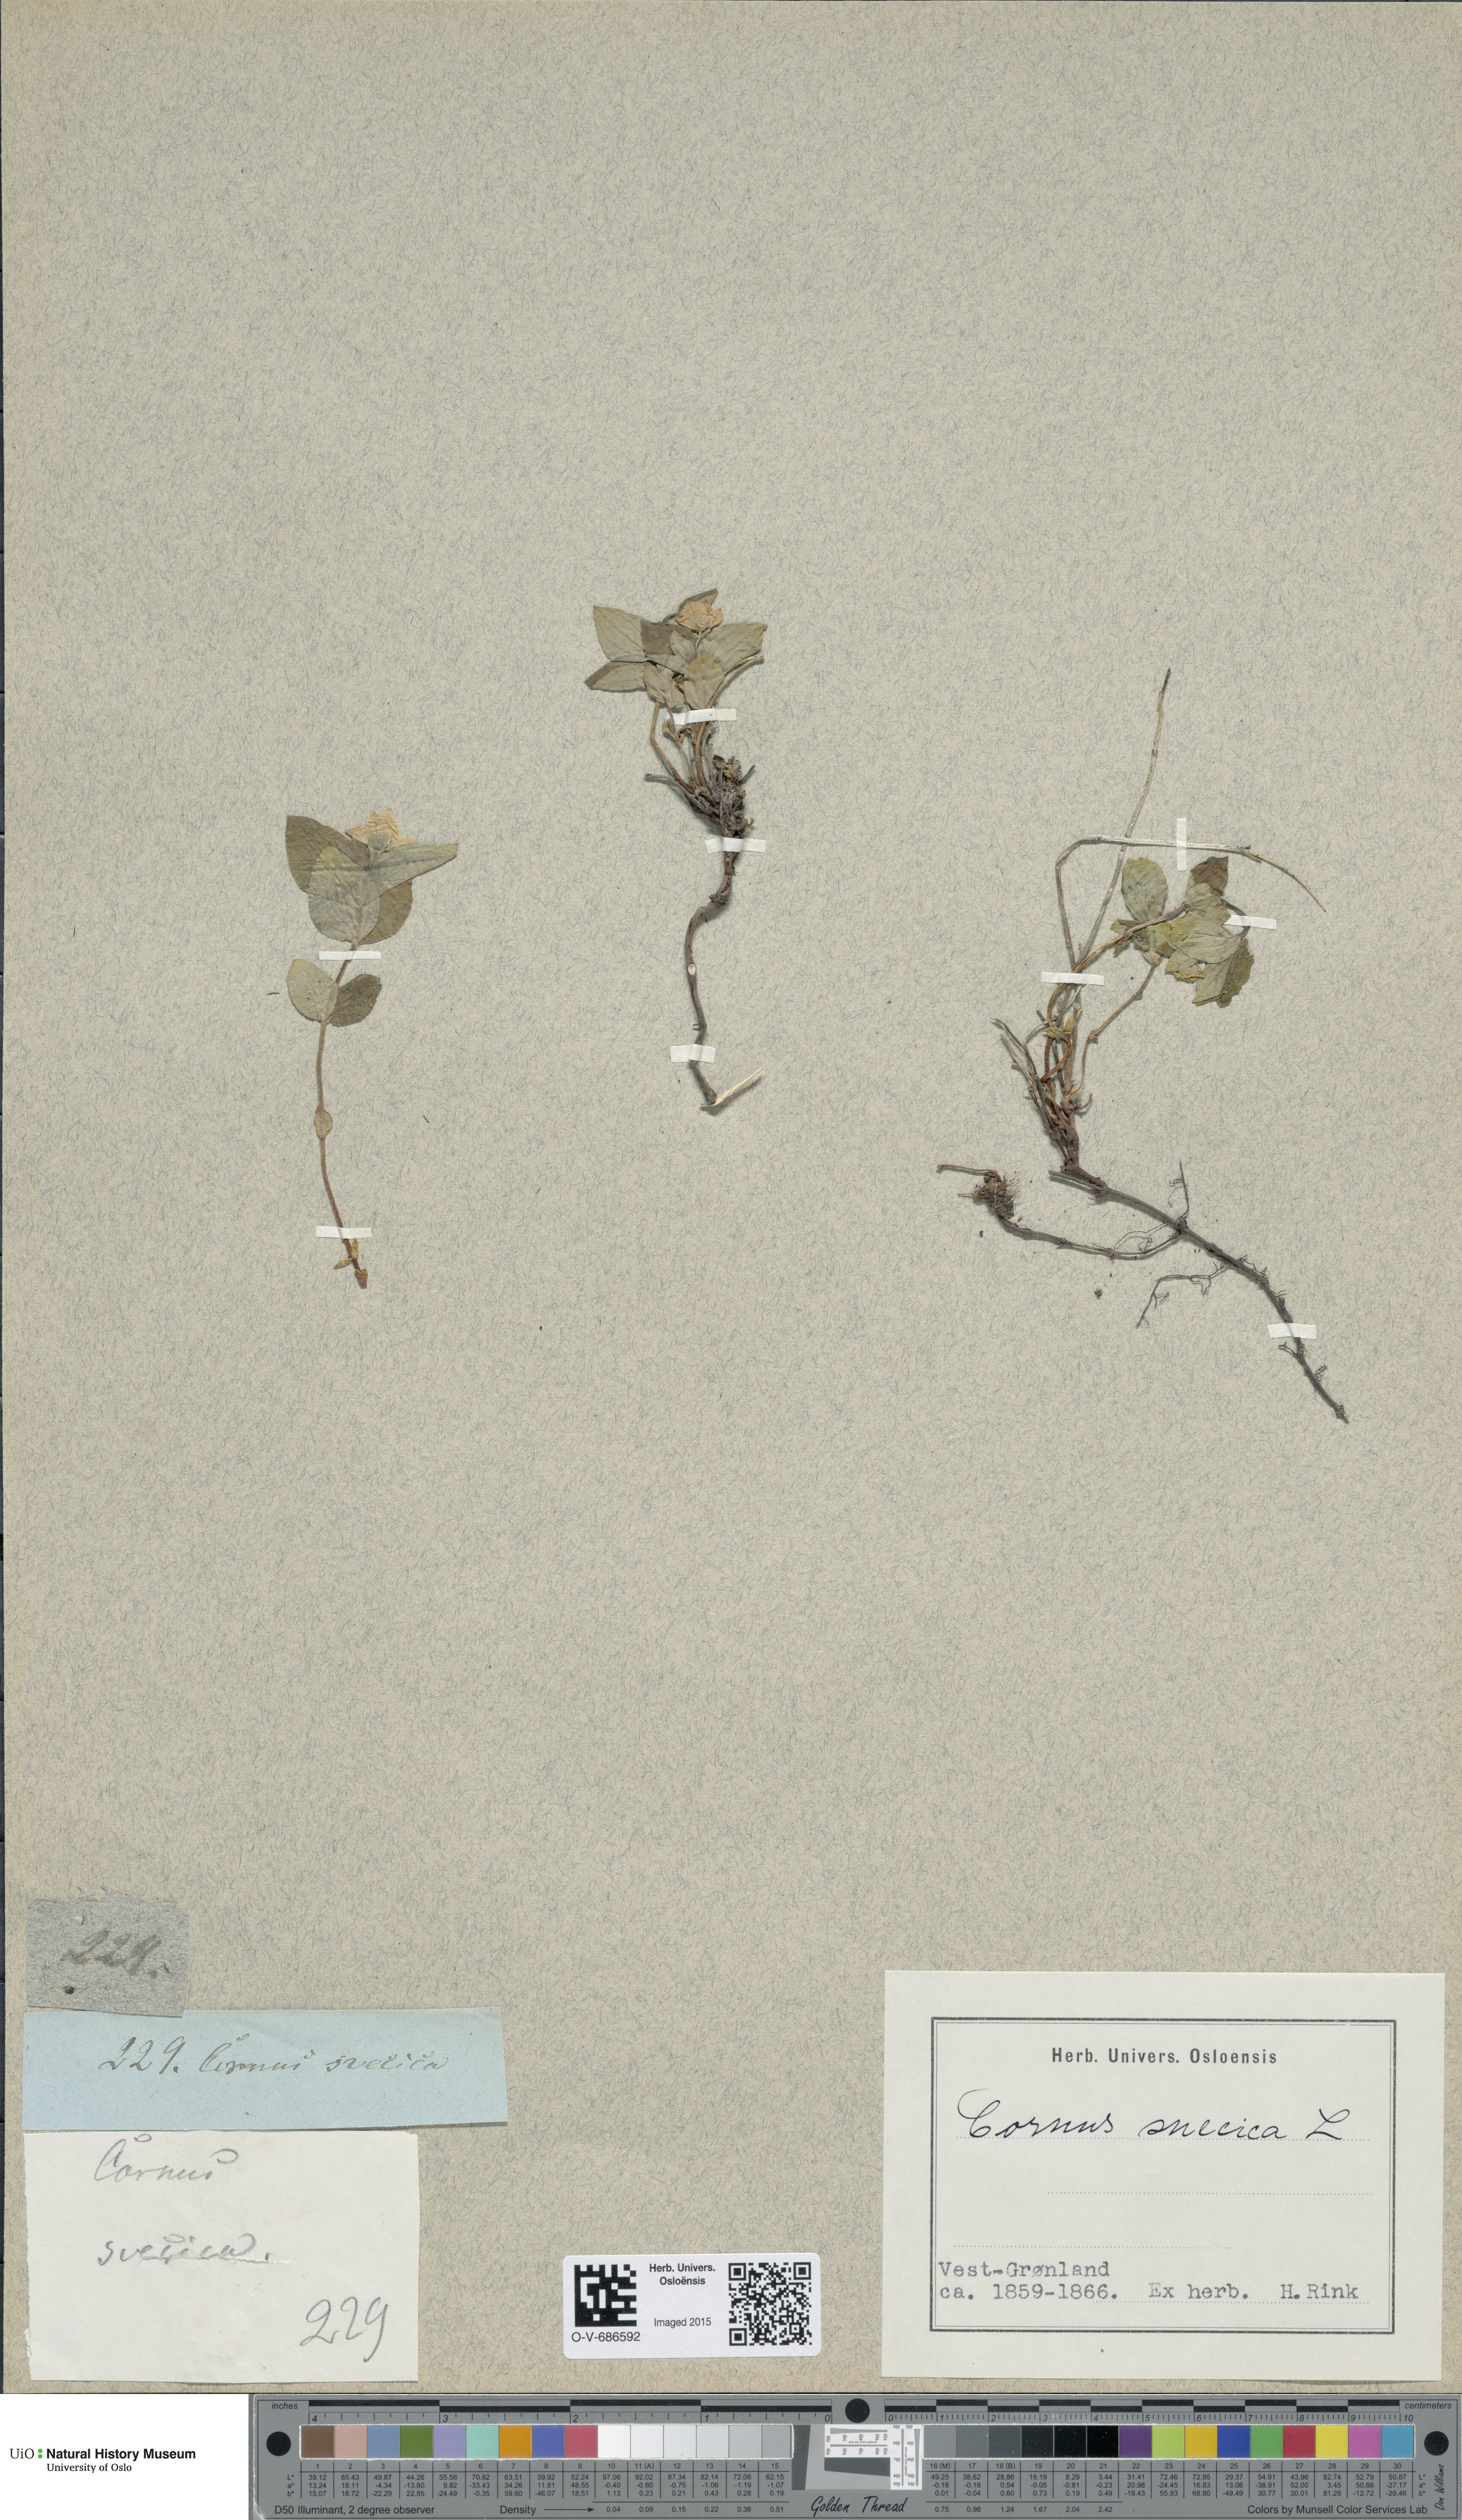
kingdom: Plantae
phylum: Tracheophyta
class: Magnoliopsida
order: Cornales
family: Cornaceae
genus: Cornus
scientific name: Cornus suecica
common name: Dwarf cornel
